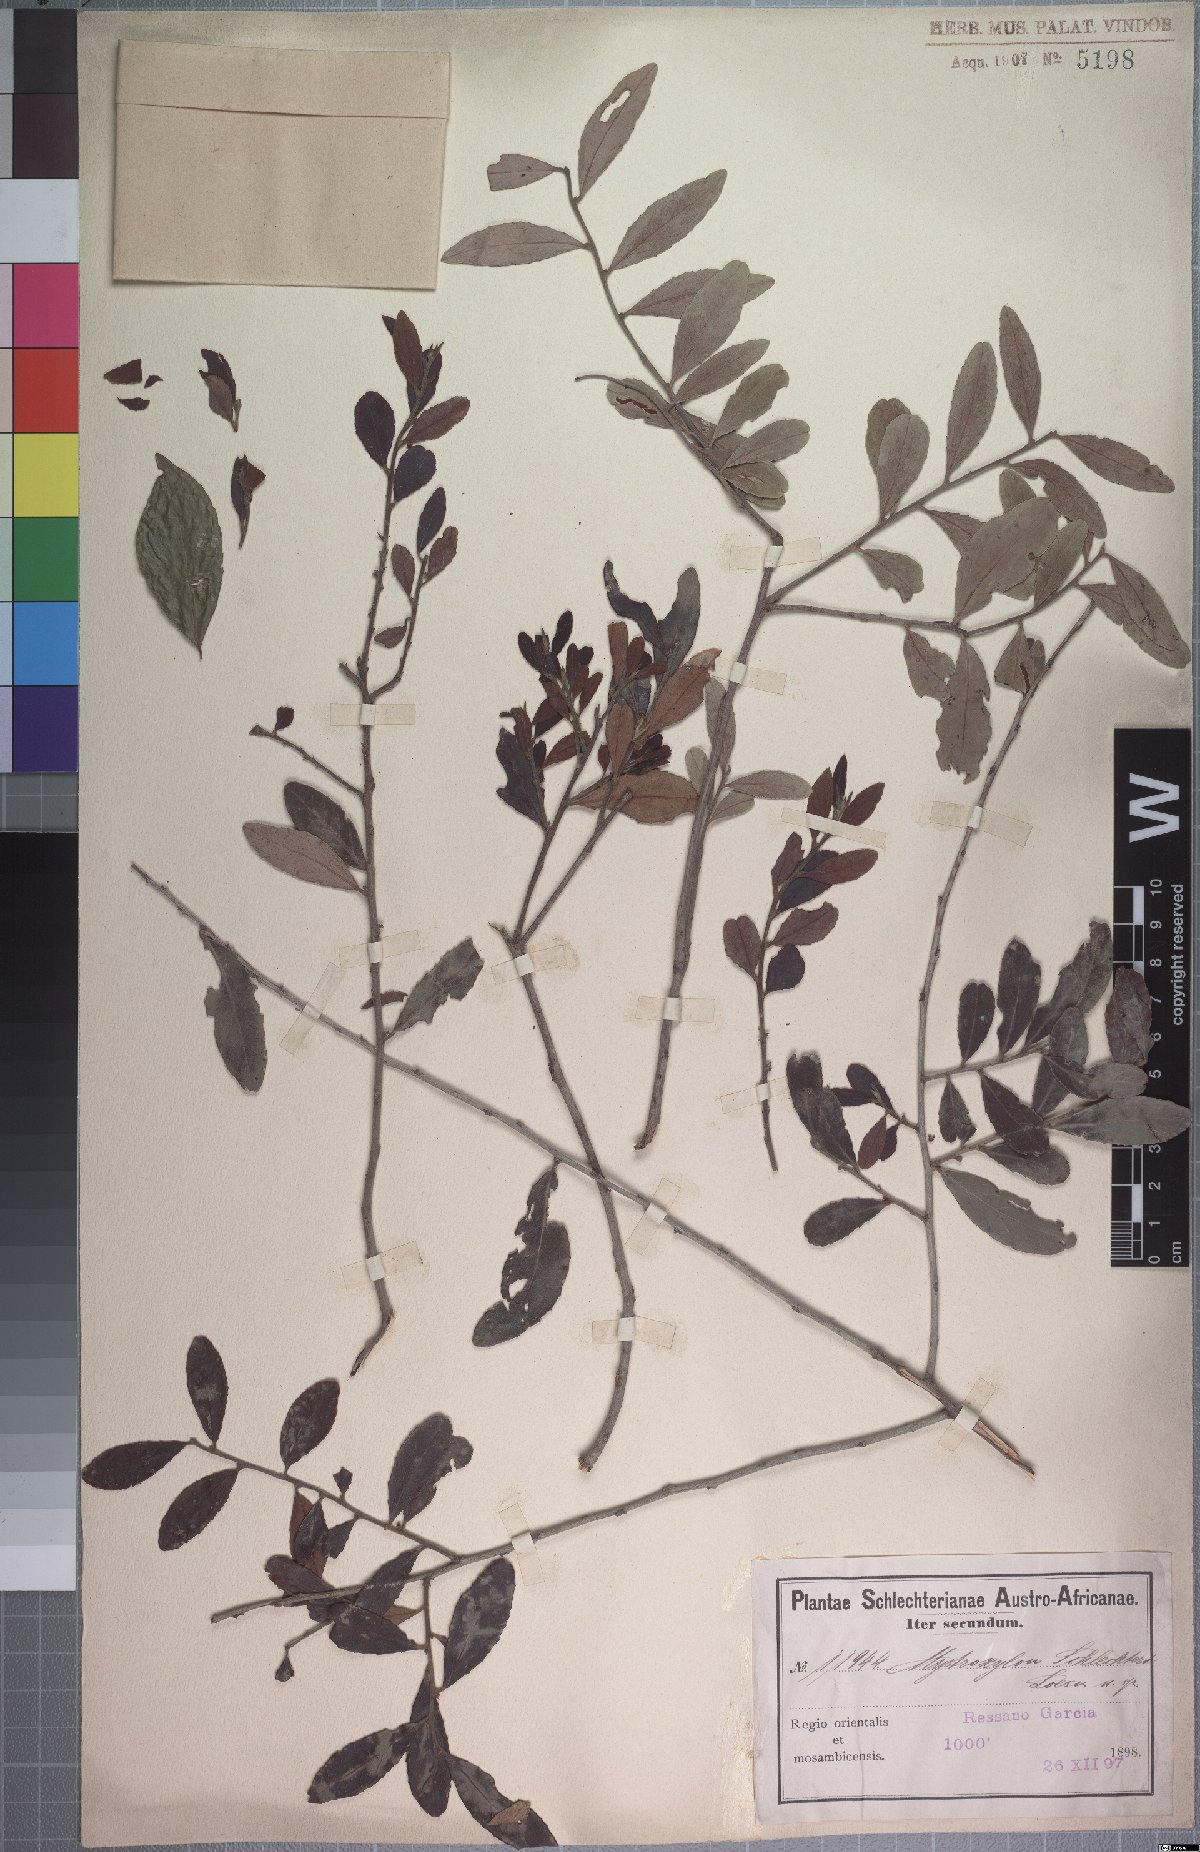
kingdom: Plantae
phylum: Tracheophyta
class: Magnoliopsida
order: Celastrales
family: Celastraceae
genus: Mystroxylon
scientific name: Mystroxylon aethiopicum
